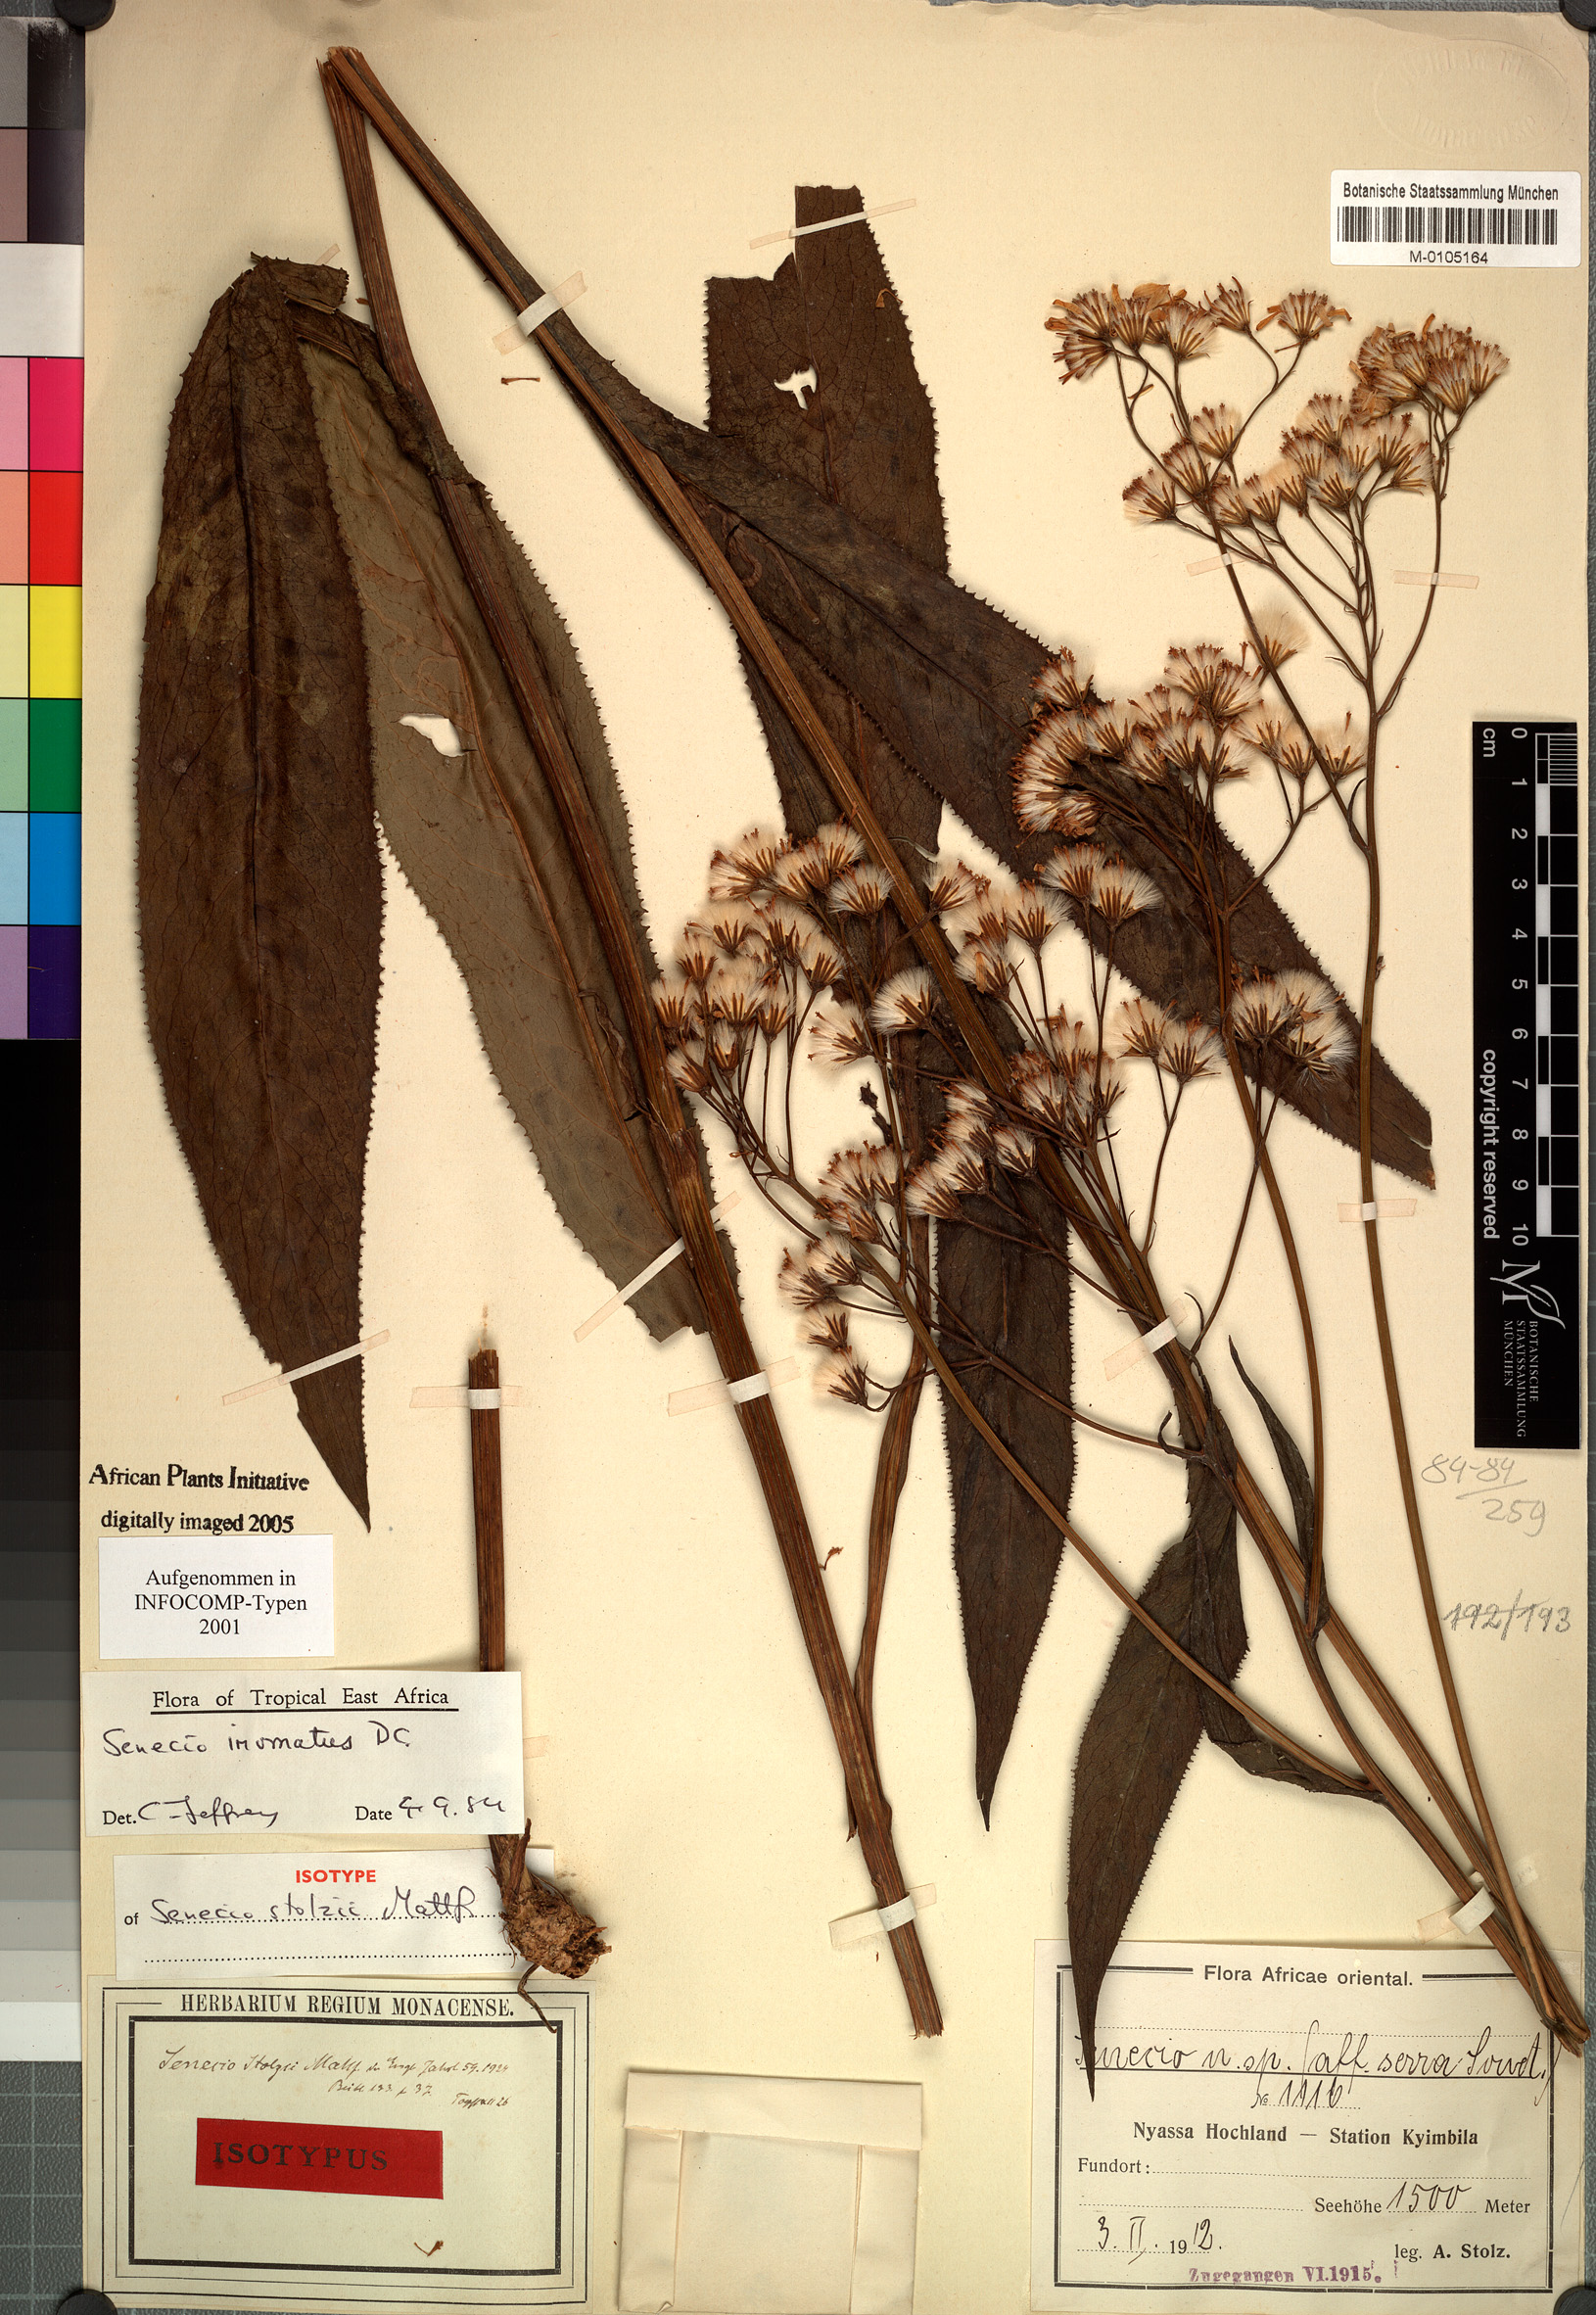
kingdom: Plantae
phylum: Tracheophyta
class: Magnoliopsida
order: Asterales
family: Asteraceae
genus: Senecio
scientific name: Senecio inornatus
